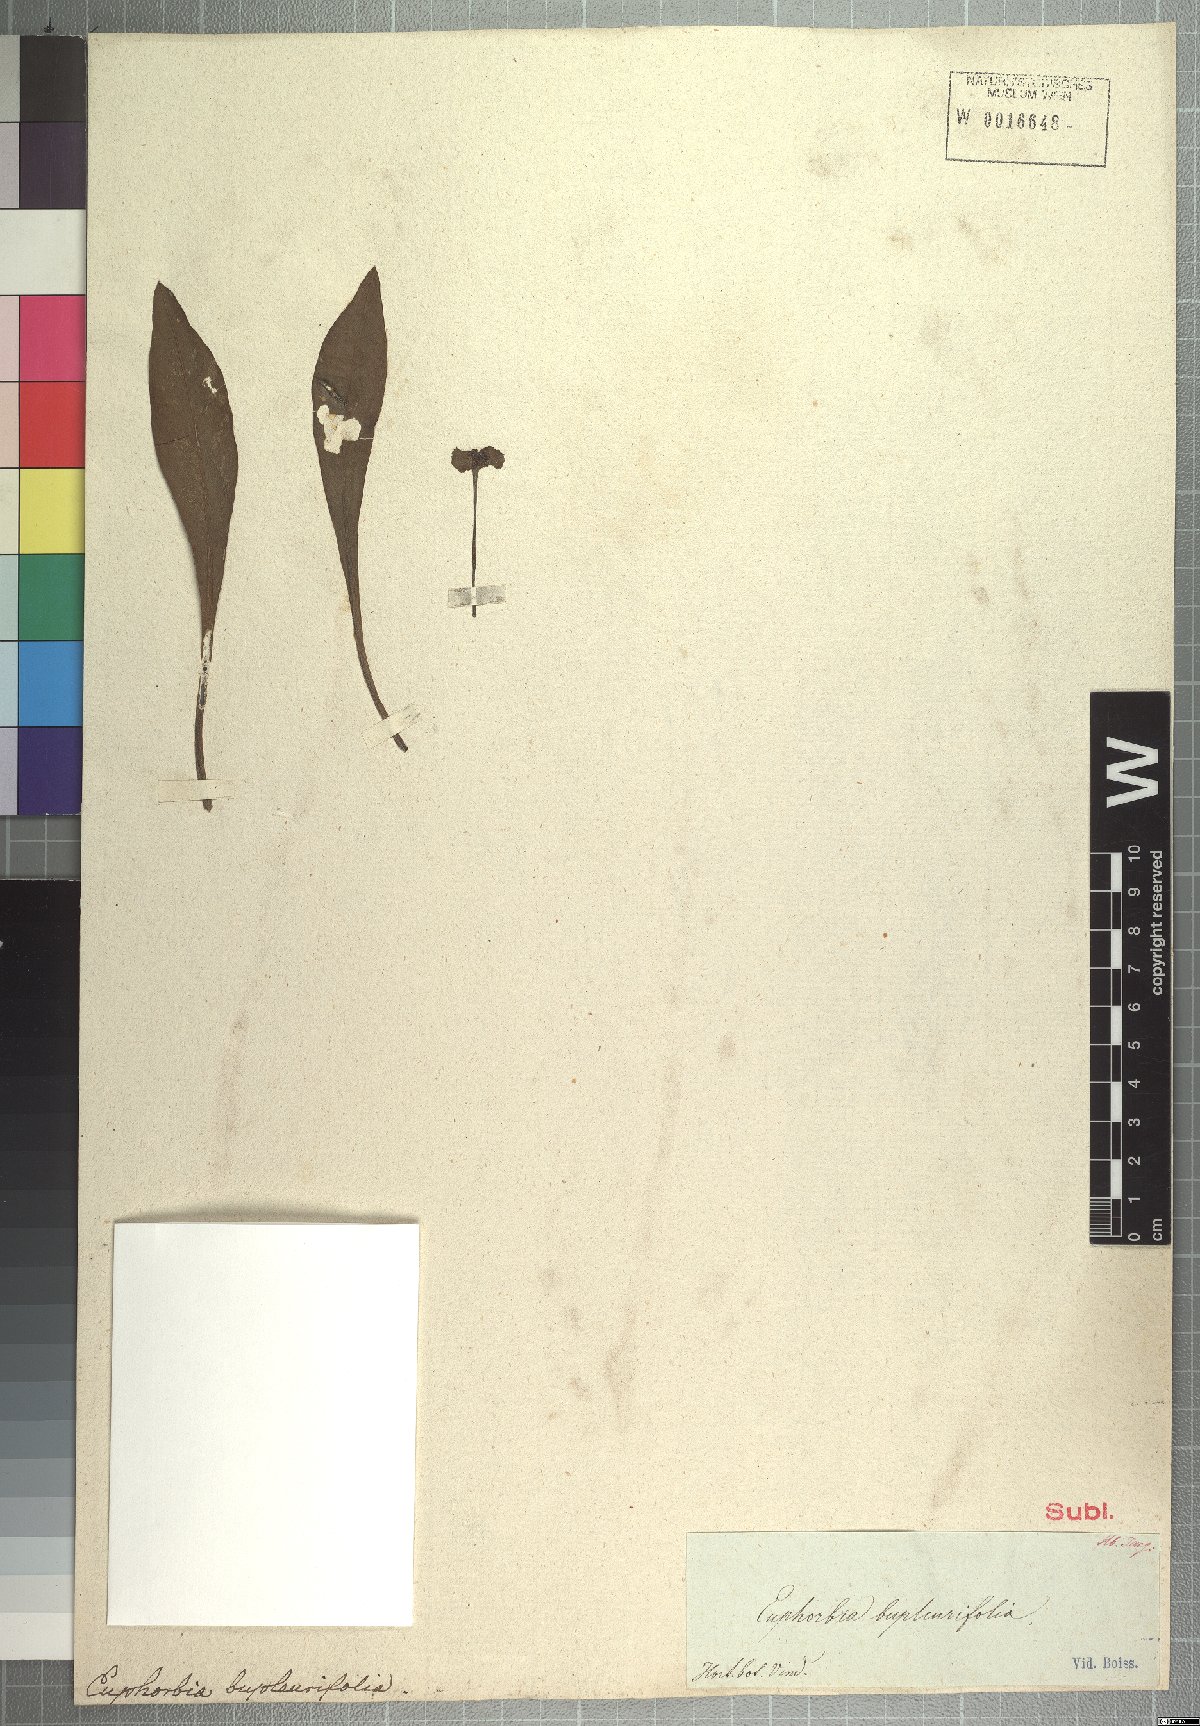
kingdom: Plantae
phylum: Tracheophyta
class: Magnoliopsida
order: Malpighiales
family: Euphorbiaceae
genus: Euphorbia
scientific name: Euphorbia bupleurifolia
